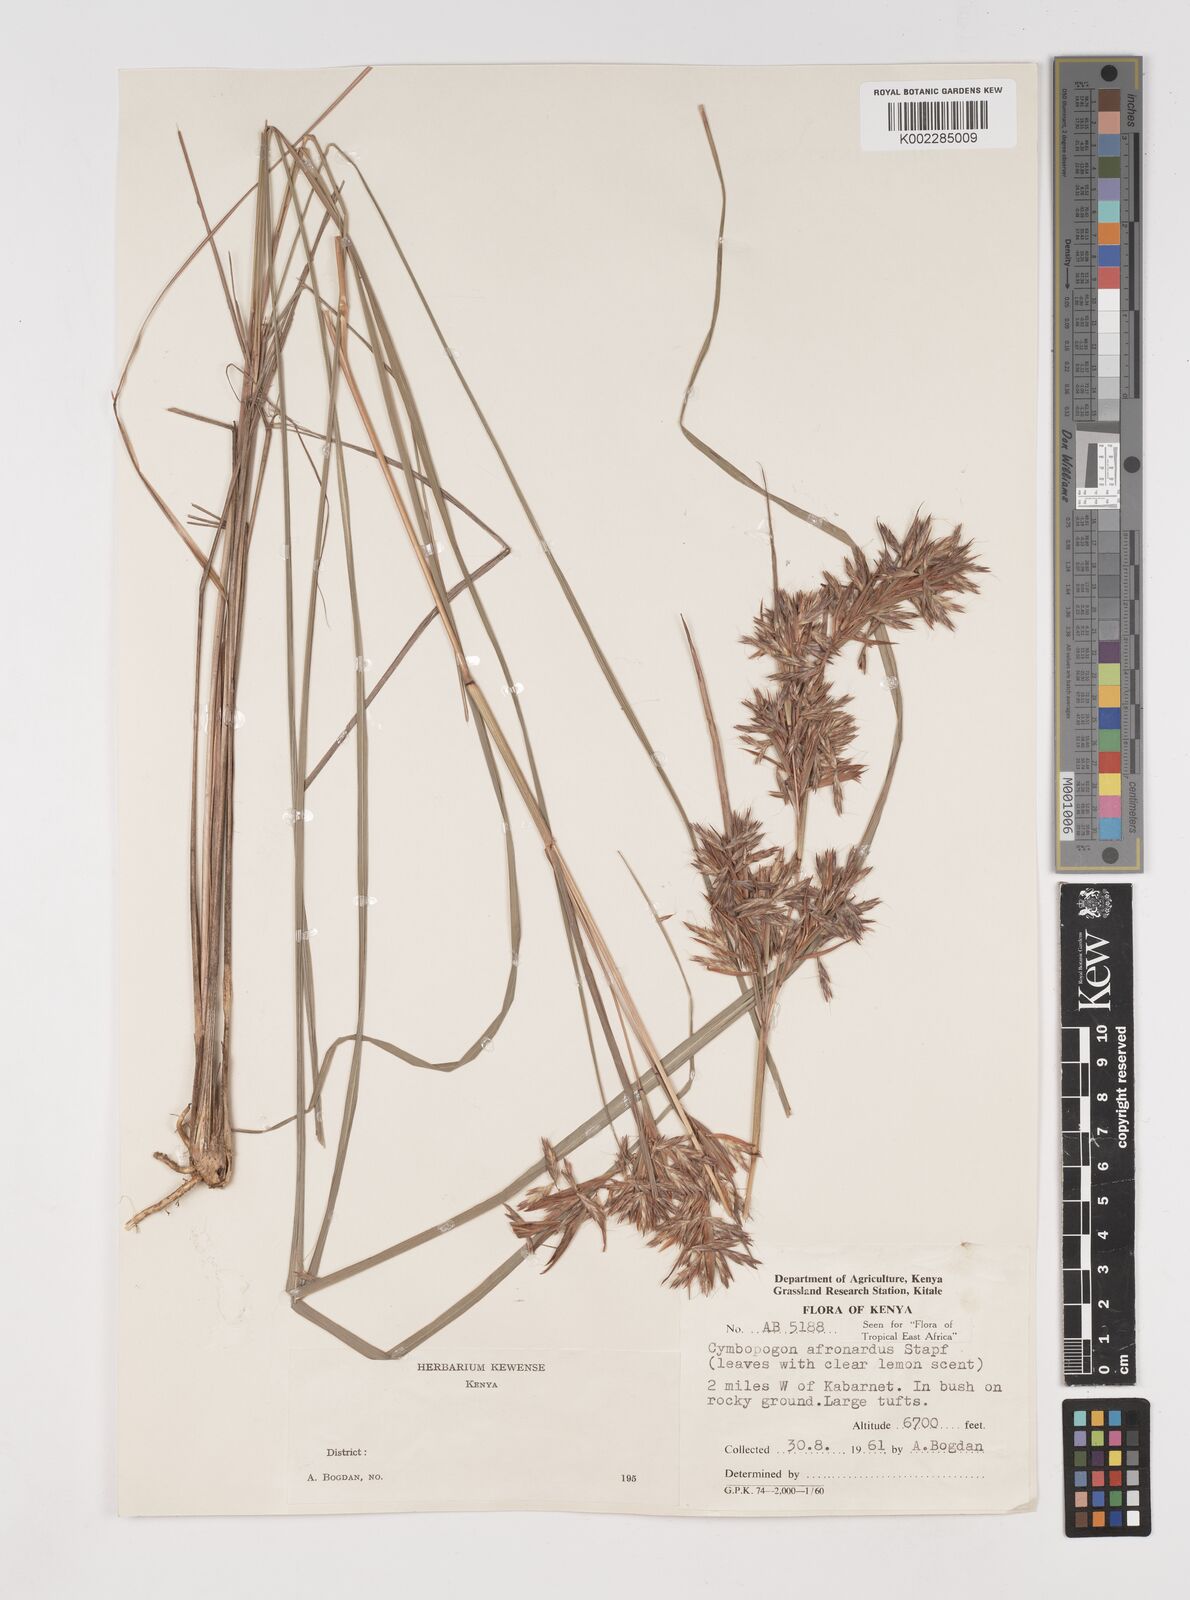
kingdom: Plantae
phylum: Tracheophyta
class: Liliopsida
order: Poales
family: Poaceae
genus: Cymbopogon
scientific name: Cymbopogon nardus
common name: Giant turpentine grass
